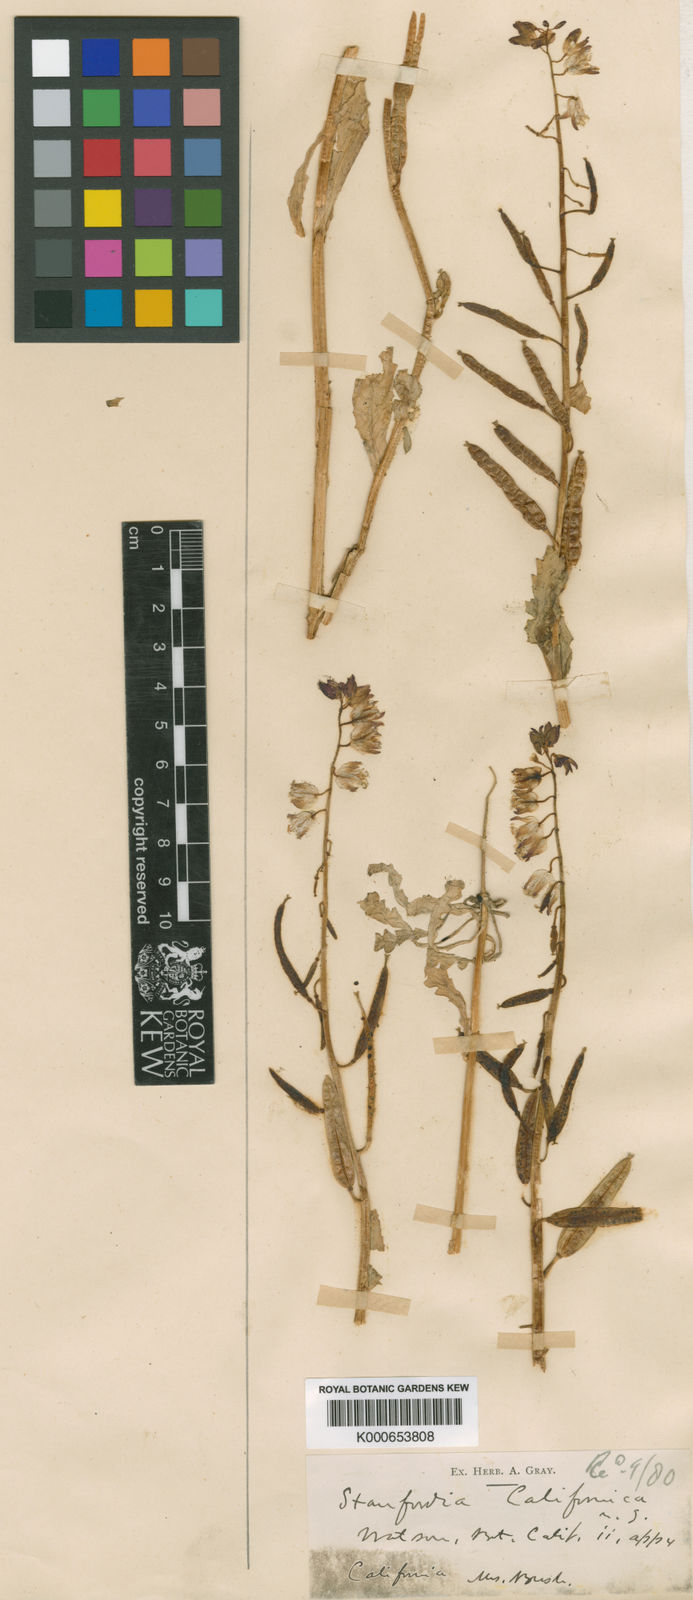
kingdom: Plantae
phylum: Tracheophyta
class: Magnoliopsida
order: Brassicales
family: Brassicaceae
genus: Streptanthus
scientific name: Streptanthus californicus
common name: California-jewel-flower
